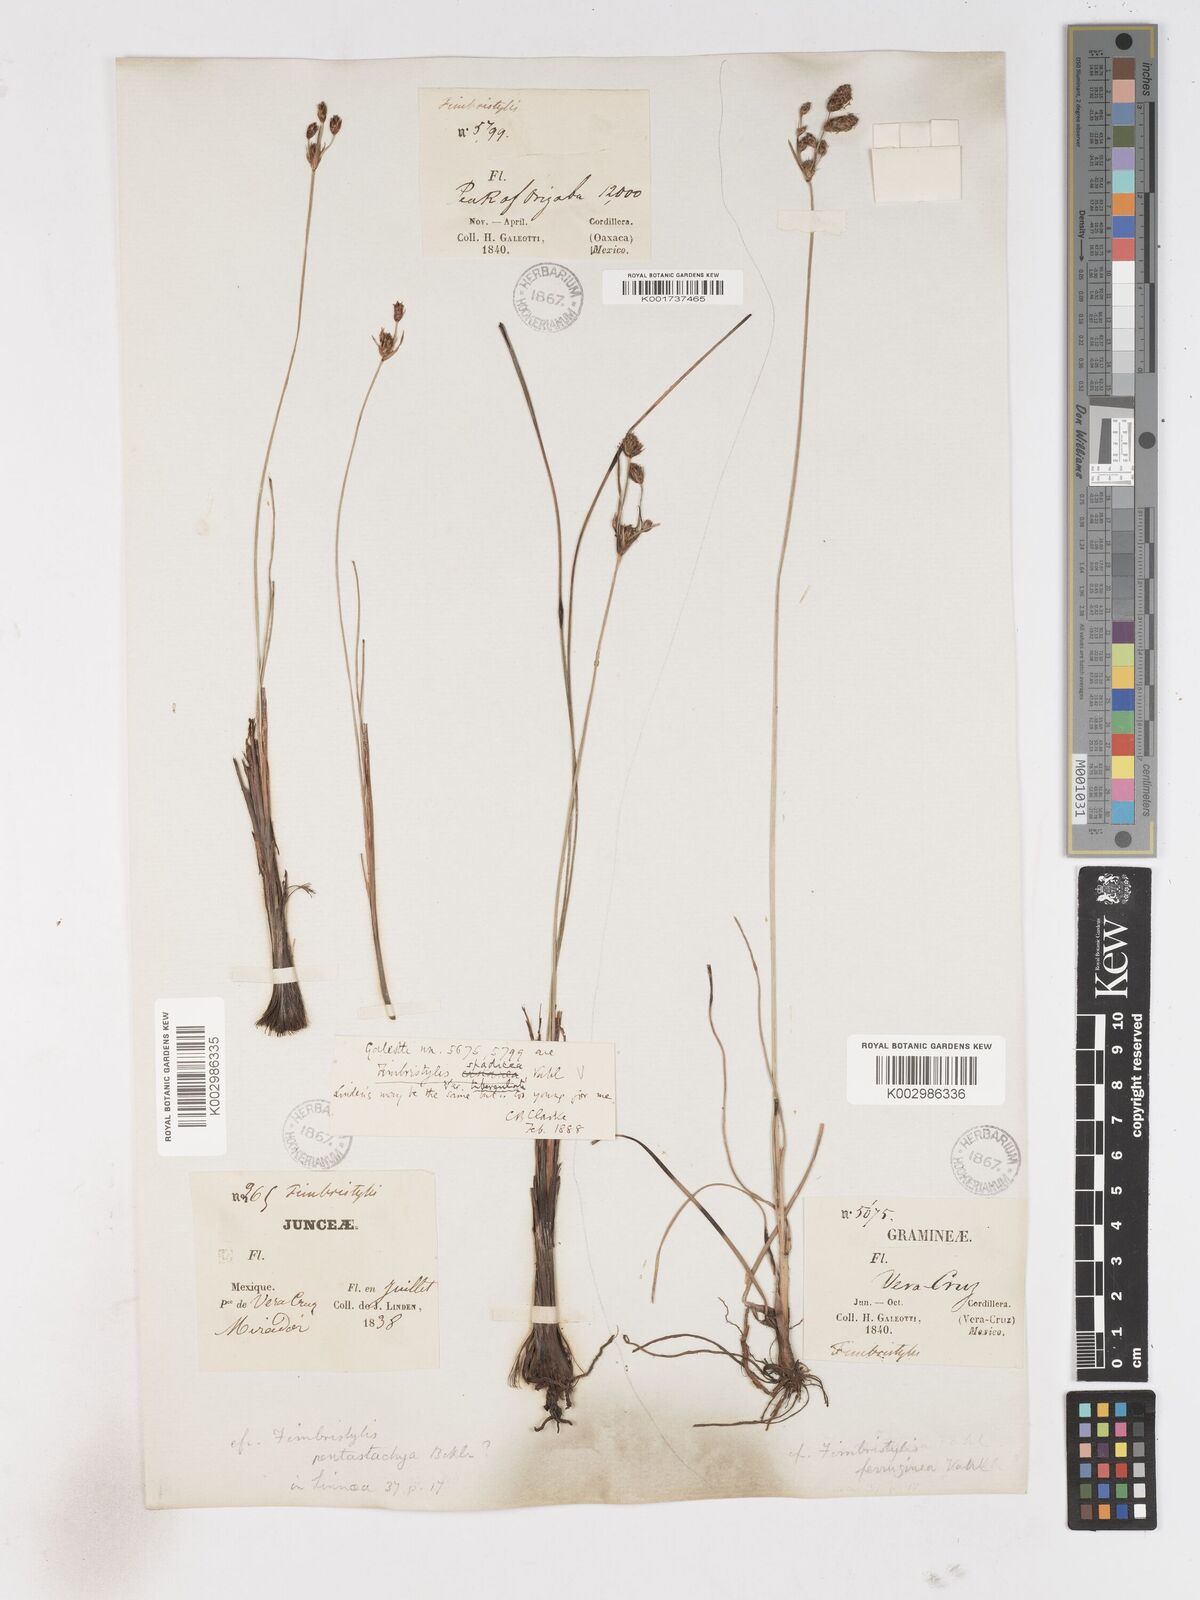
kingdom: Plantae
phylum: Tracheophyta
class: Liliopsida
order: Poales
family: Cyperaceae
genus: Fimbristylis
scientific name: Fimbristylis spadicea
